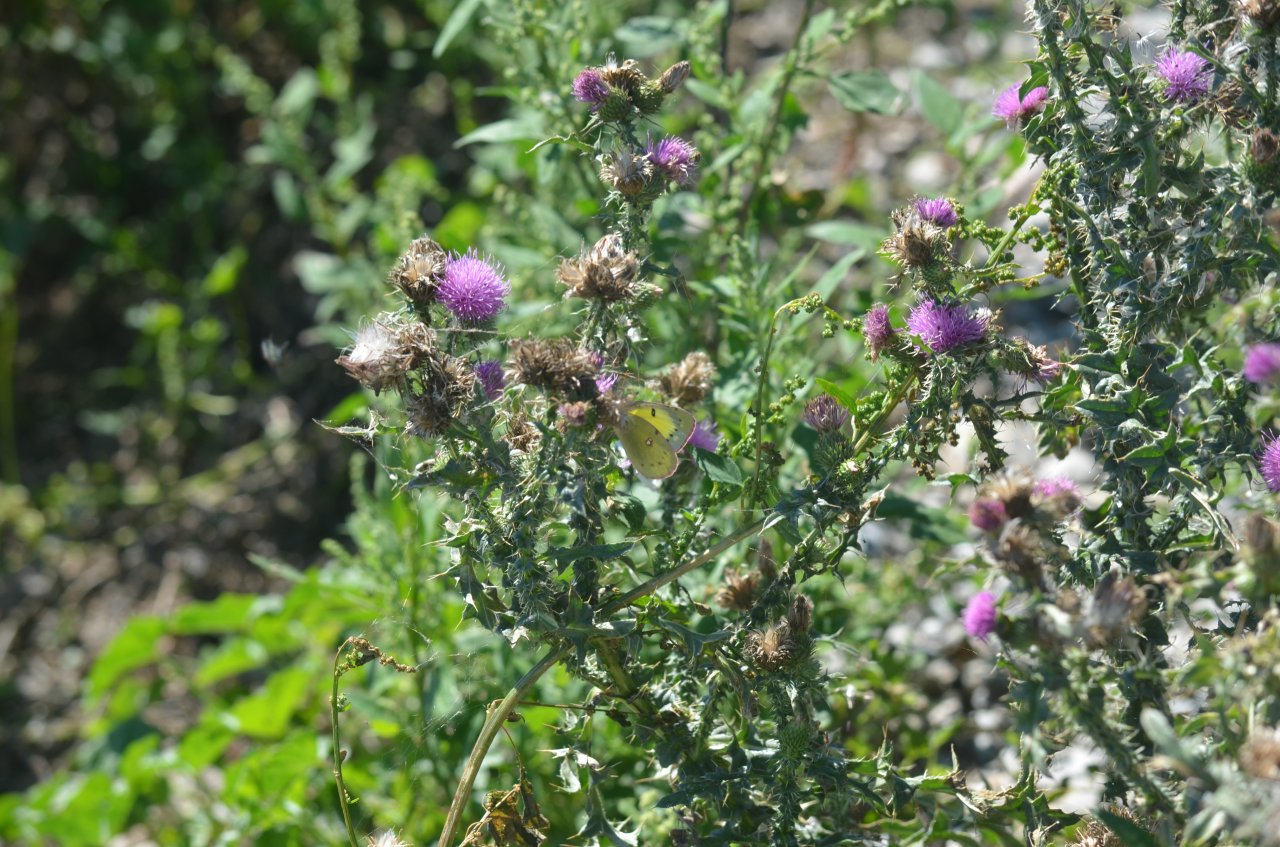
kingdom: Animalia
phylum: Arthropoda
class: Insecta
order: Lepidoptera
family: Pieridae
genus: Colias
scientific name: Colias philodice
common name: Clouded Sulphur
